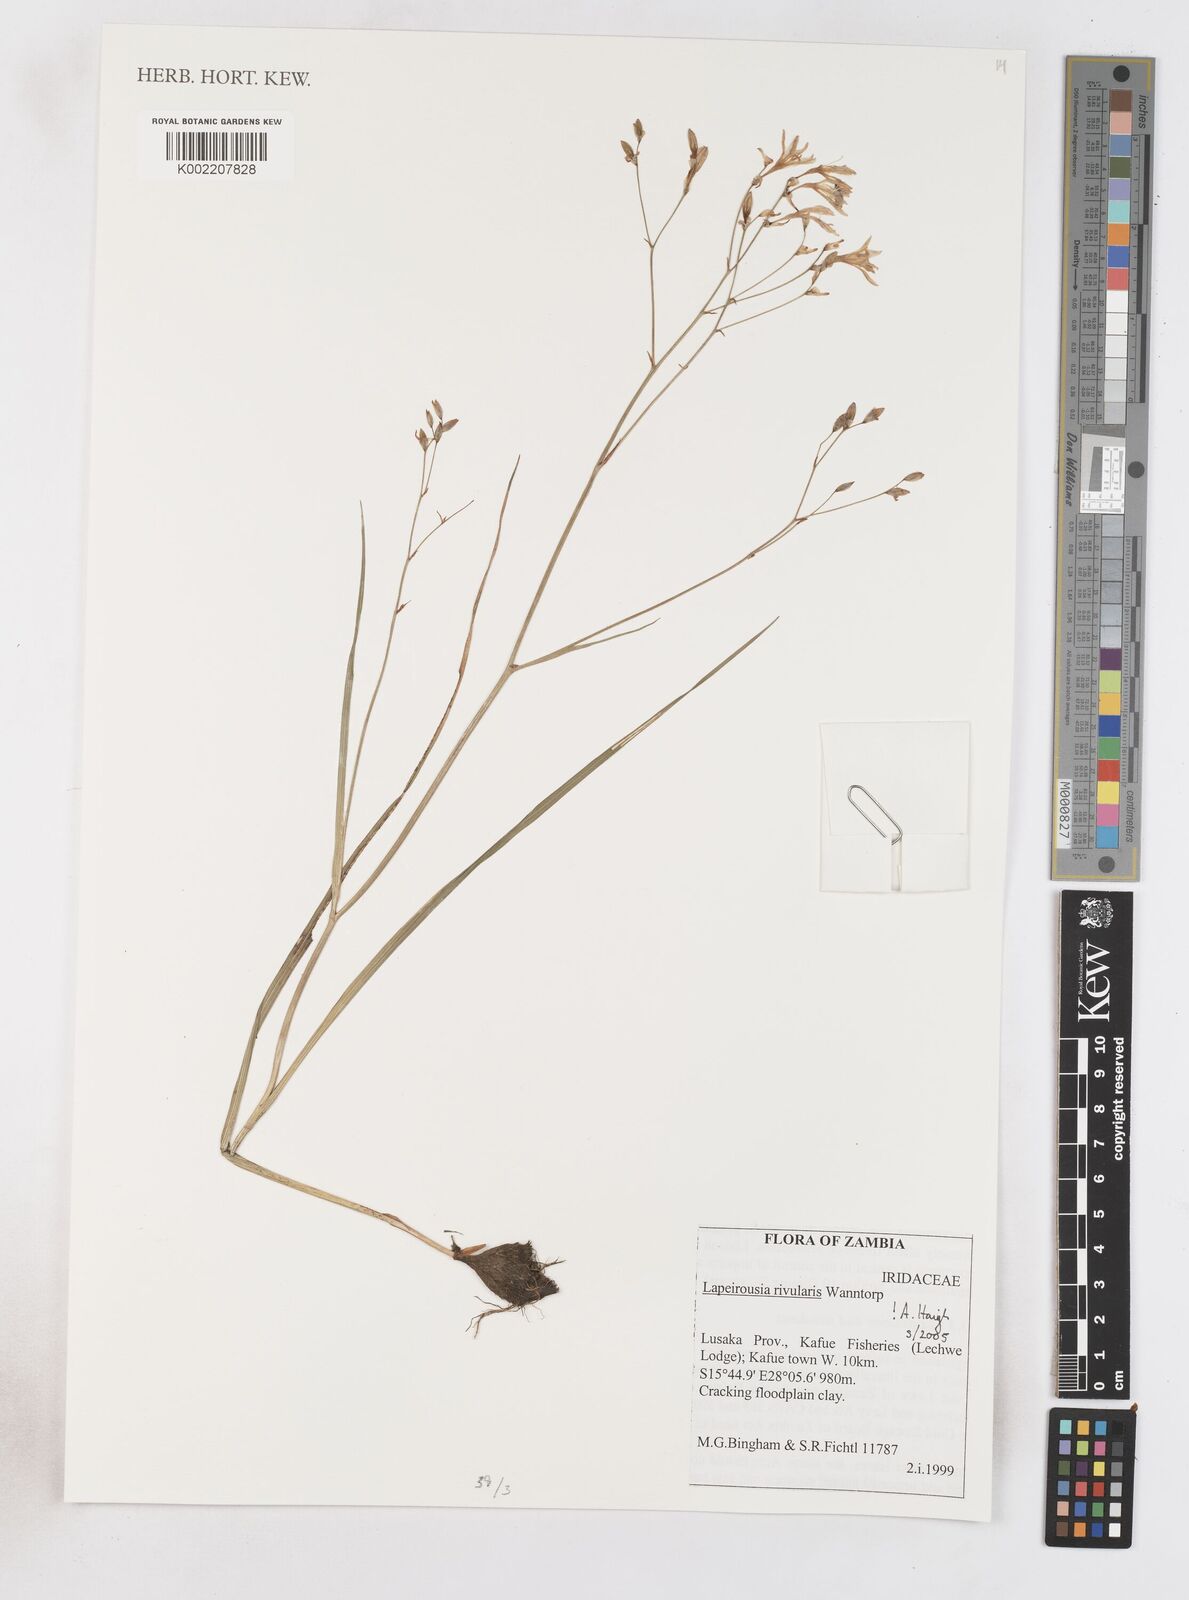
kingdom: Plantae
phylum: Tracheophyta
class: Liliopsida
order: Asparagales
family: Iridaceae
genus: Afrosolen
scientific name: Afrosolen rivularis
